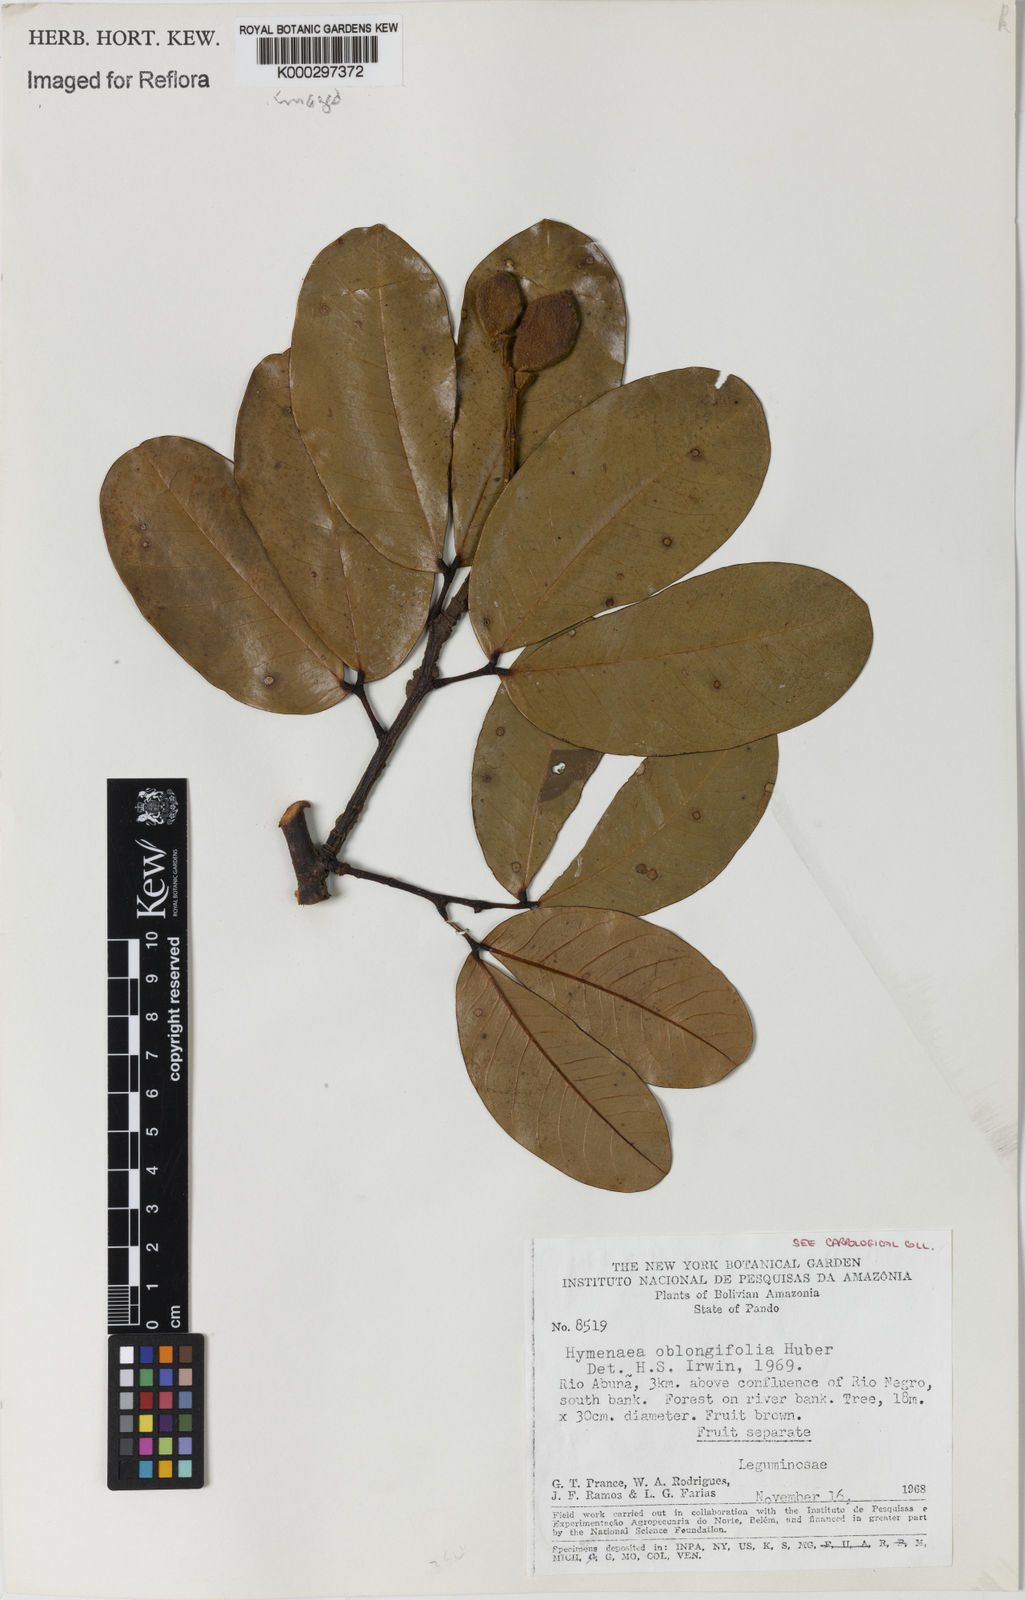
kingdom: Plantae
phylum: Tracheophyta
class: Magnoliopsida
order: Fabales
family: Fabaceae
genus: Hymenaea
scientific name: Hymenaea oblongifolia
